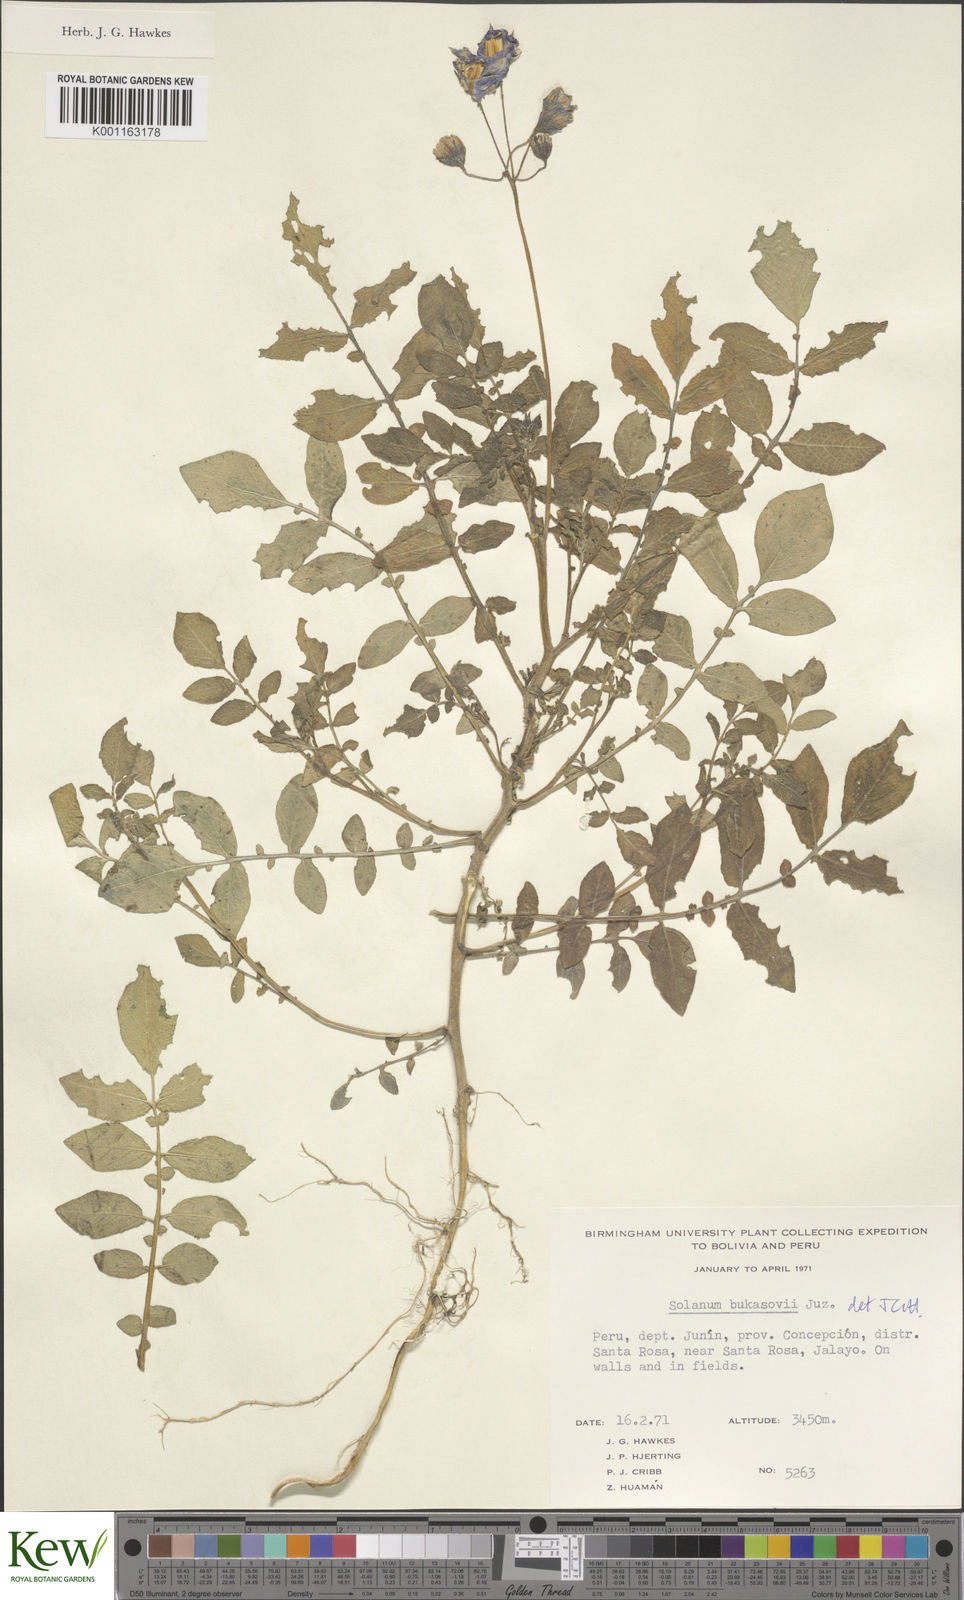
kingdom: Plantae
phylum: Tracheophyta
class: Magnoliopsida
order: Solanales
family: Solanaceae
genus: Solanum
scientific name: Solanum candolleanum
